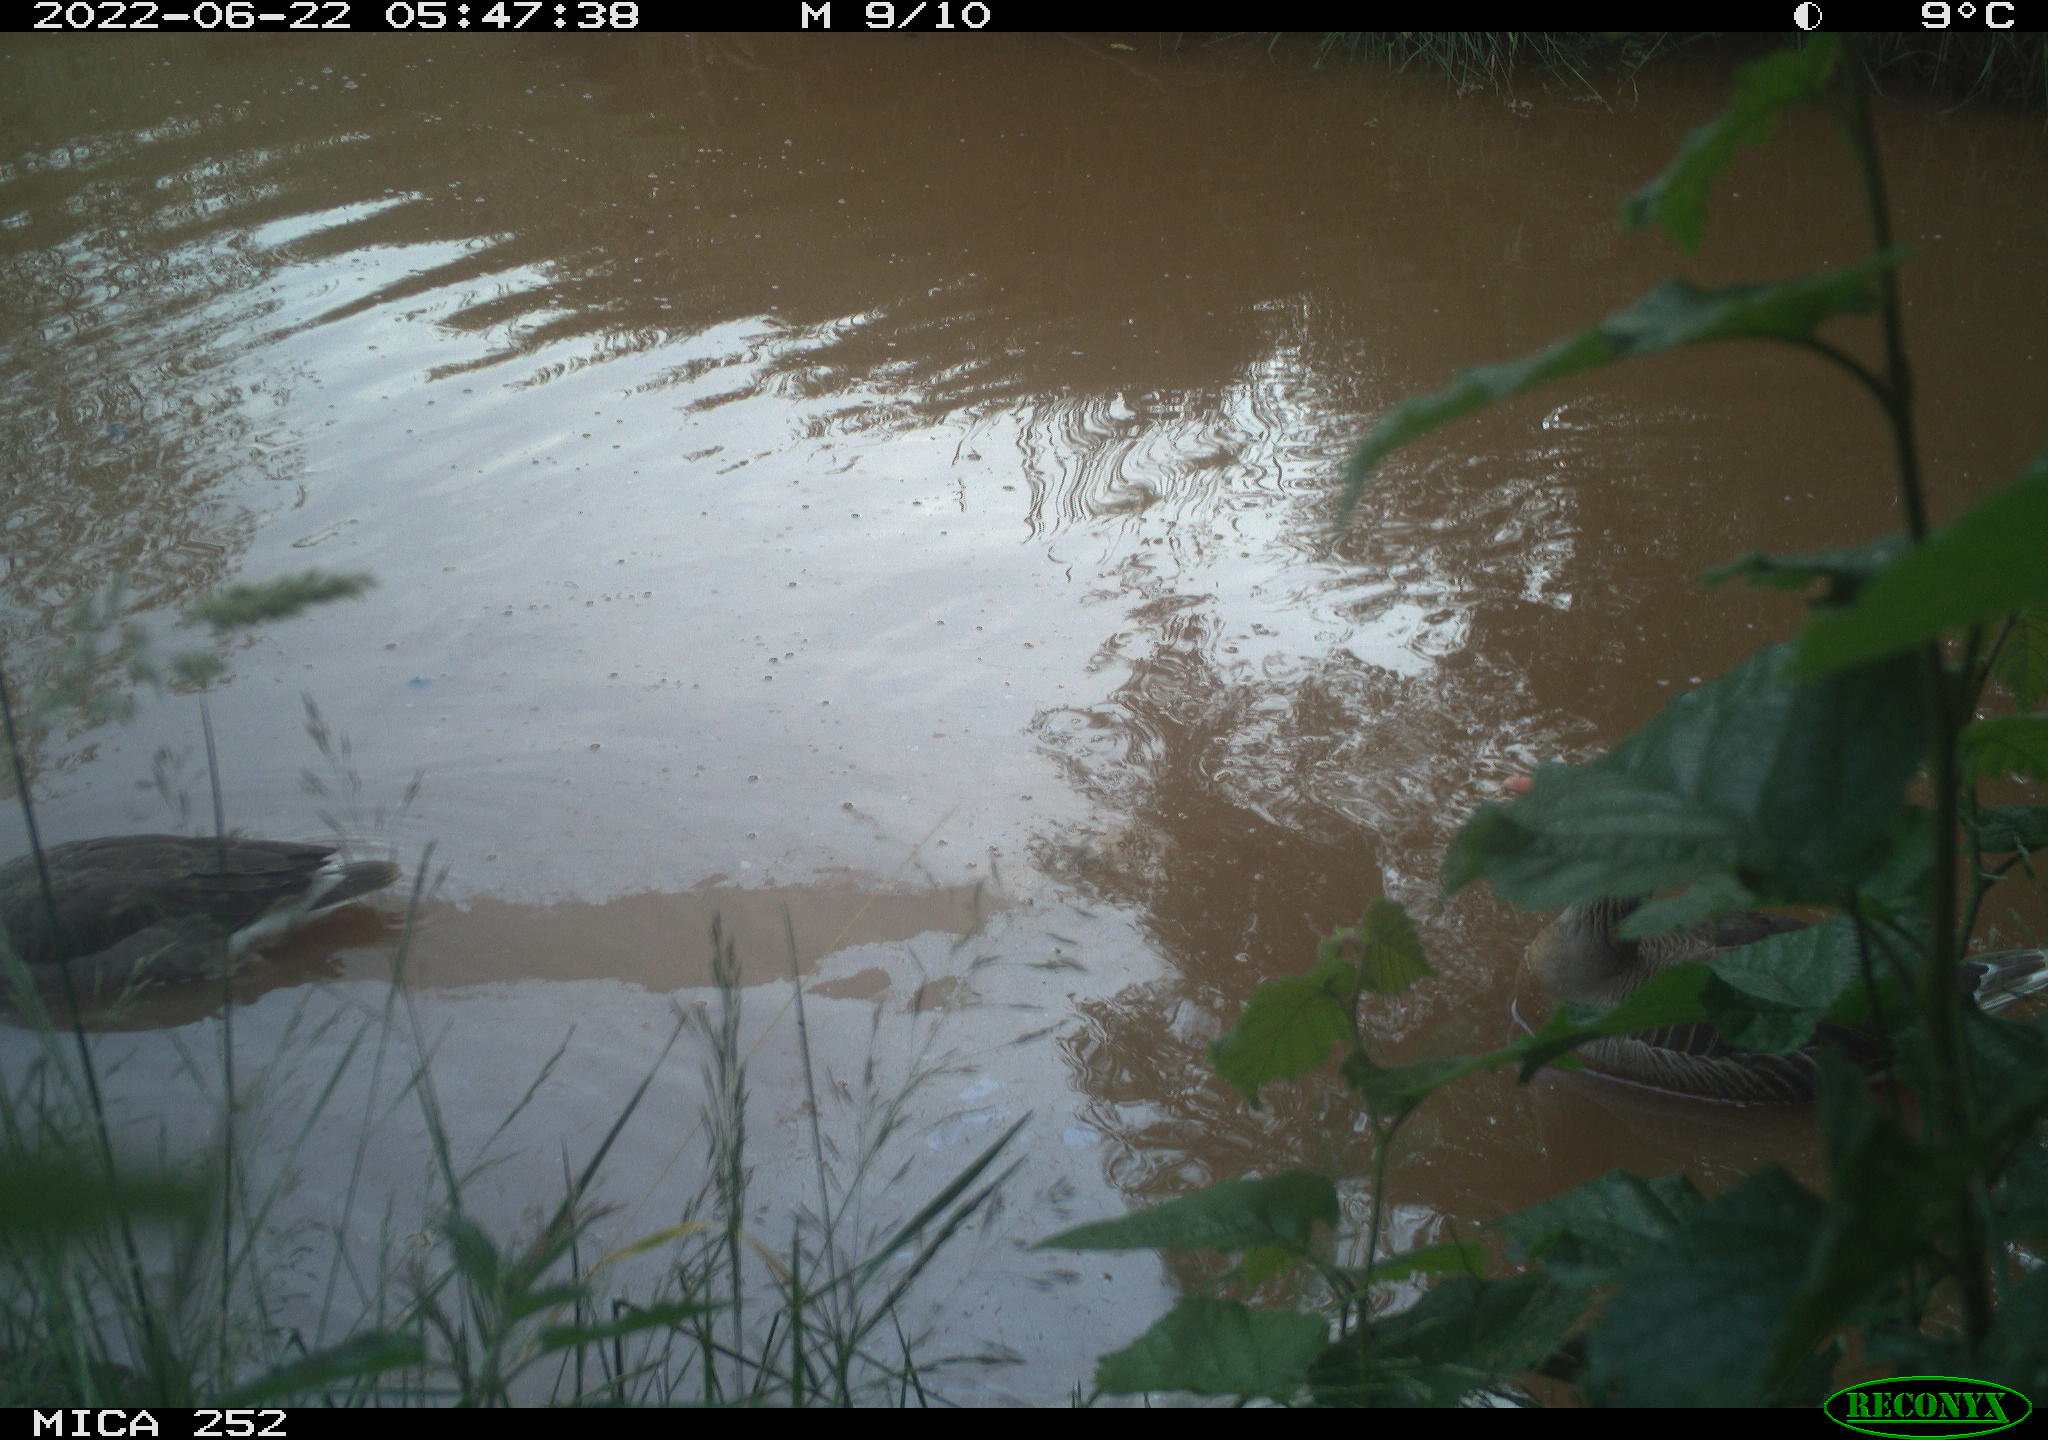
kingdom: Animalia
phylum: Chordata
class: Aves
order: Gruiformes
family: Rallidae
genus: Gallinula
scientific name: Gallinula chloropus
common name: Common moorhen
